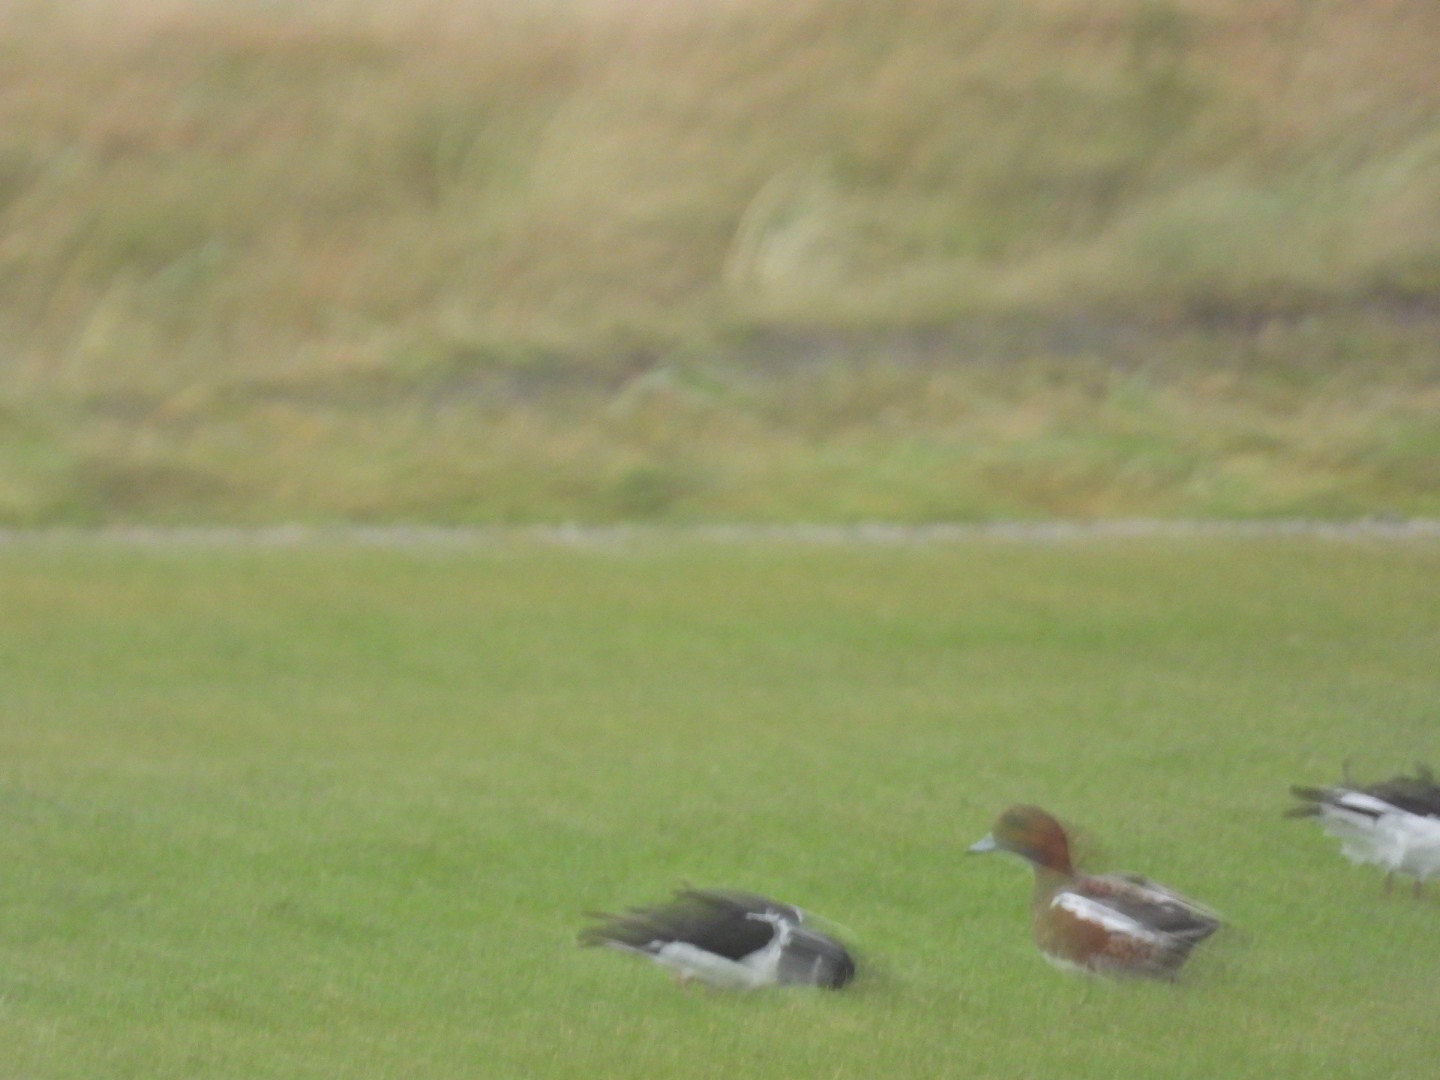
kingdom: Animalia
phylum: Chordata
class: Aves
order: Anseriformes
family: Anatidae
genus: Mareca
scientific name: Mareca penelope
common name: Pibeand
